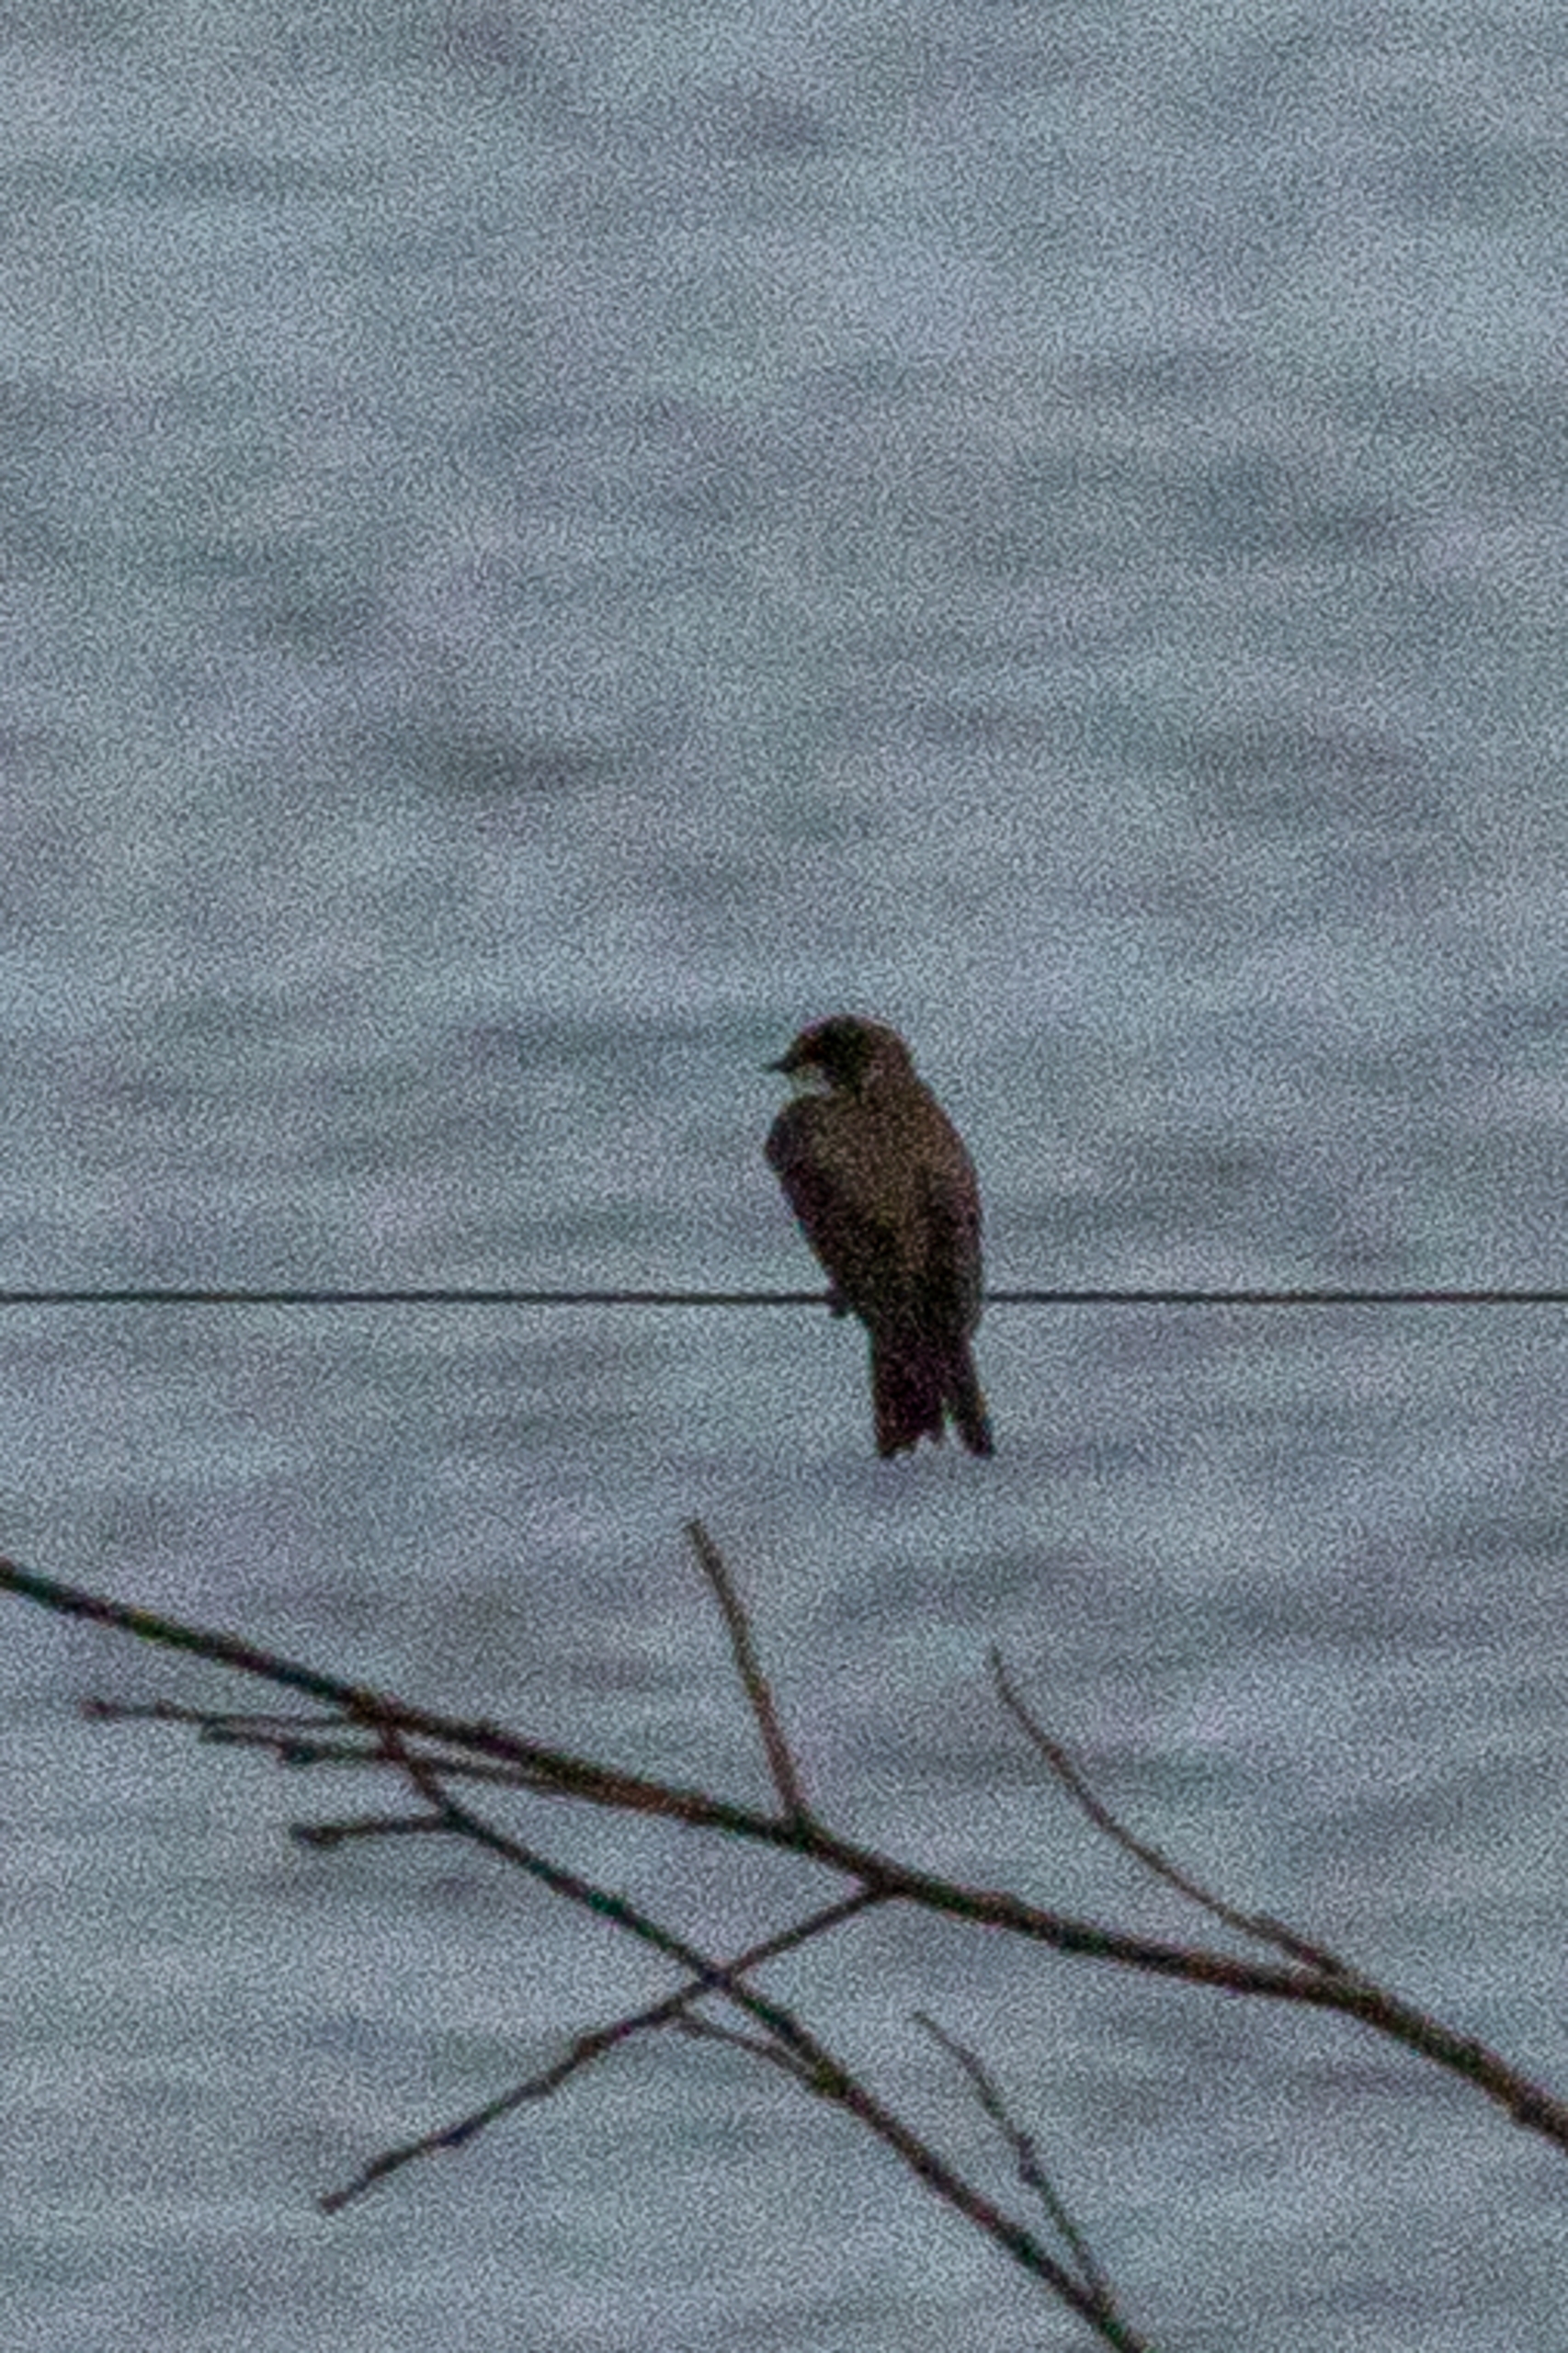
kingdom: Animalia
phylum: Chordata
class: Aves
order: Passeriformes
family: Hirundinidae
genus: Riparia
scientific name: Riparia riparia
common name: Digesvale
